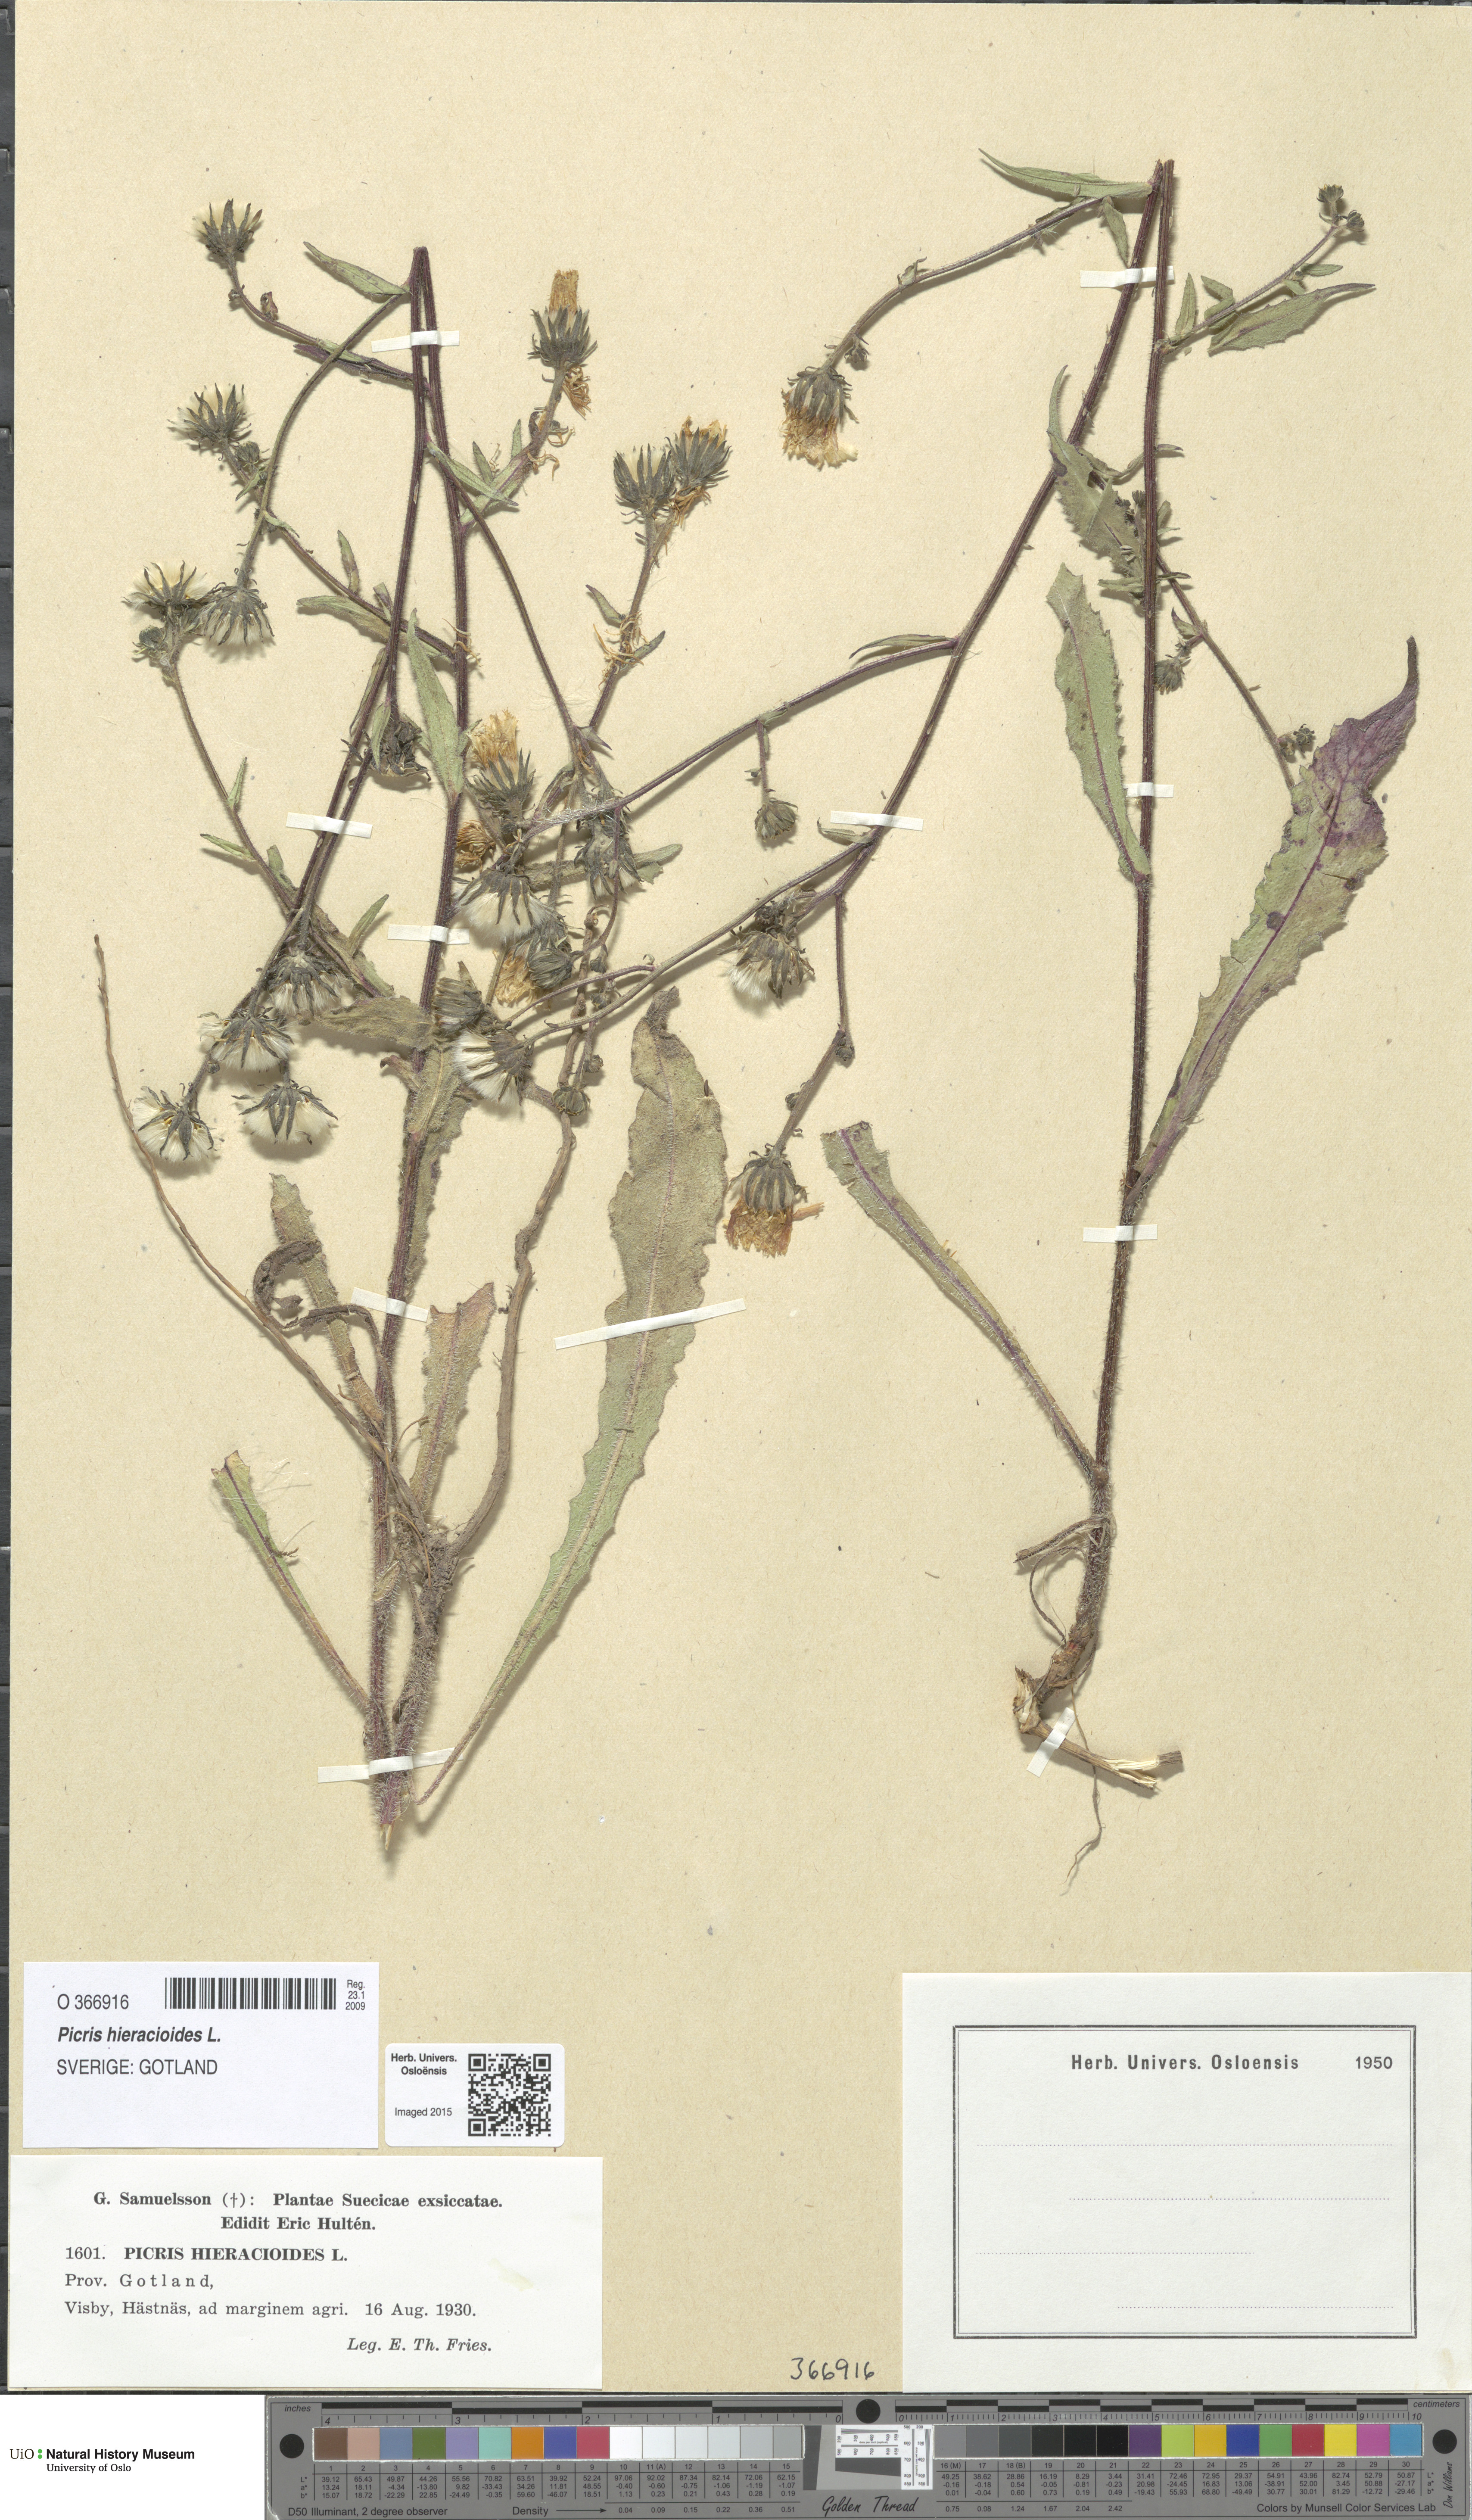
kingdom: Plantae
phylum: Tracheophyta
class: Magnoliopsida
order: Asterales
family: Asteraceae
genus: Picris
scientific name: Picris hieracioides
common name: Hawkweed oxtongue
